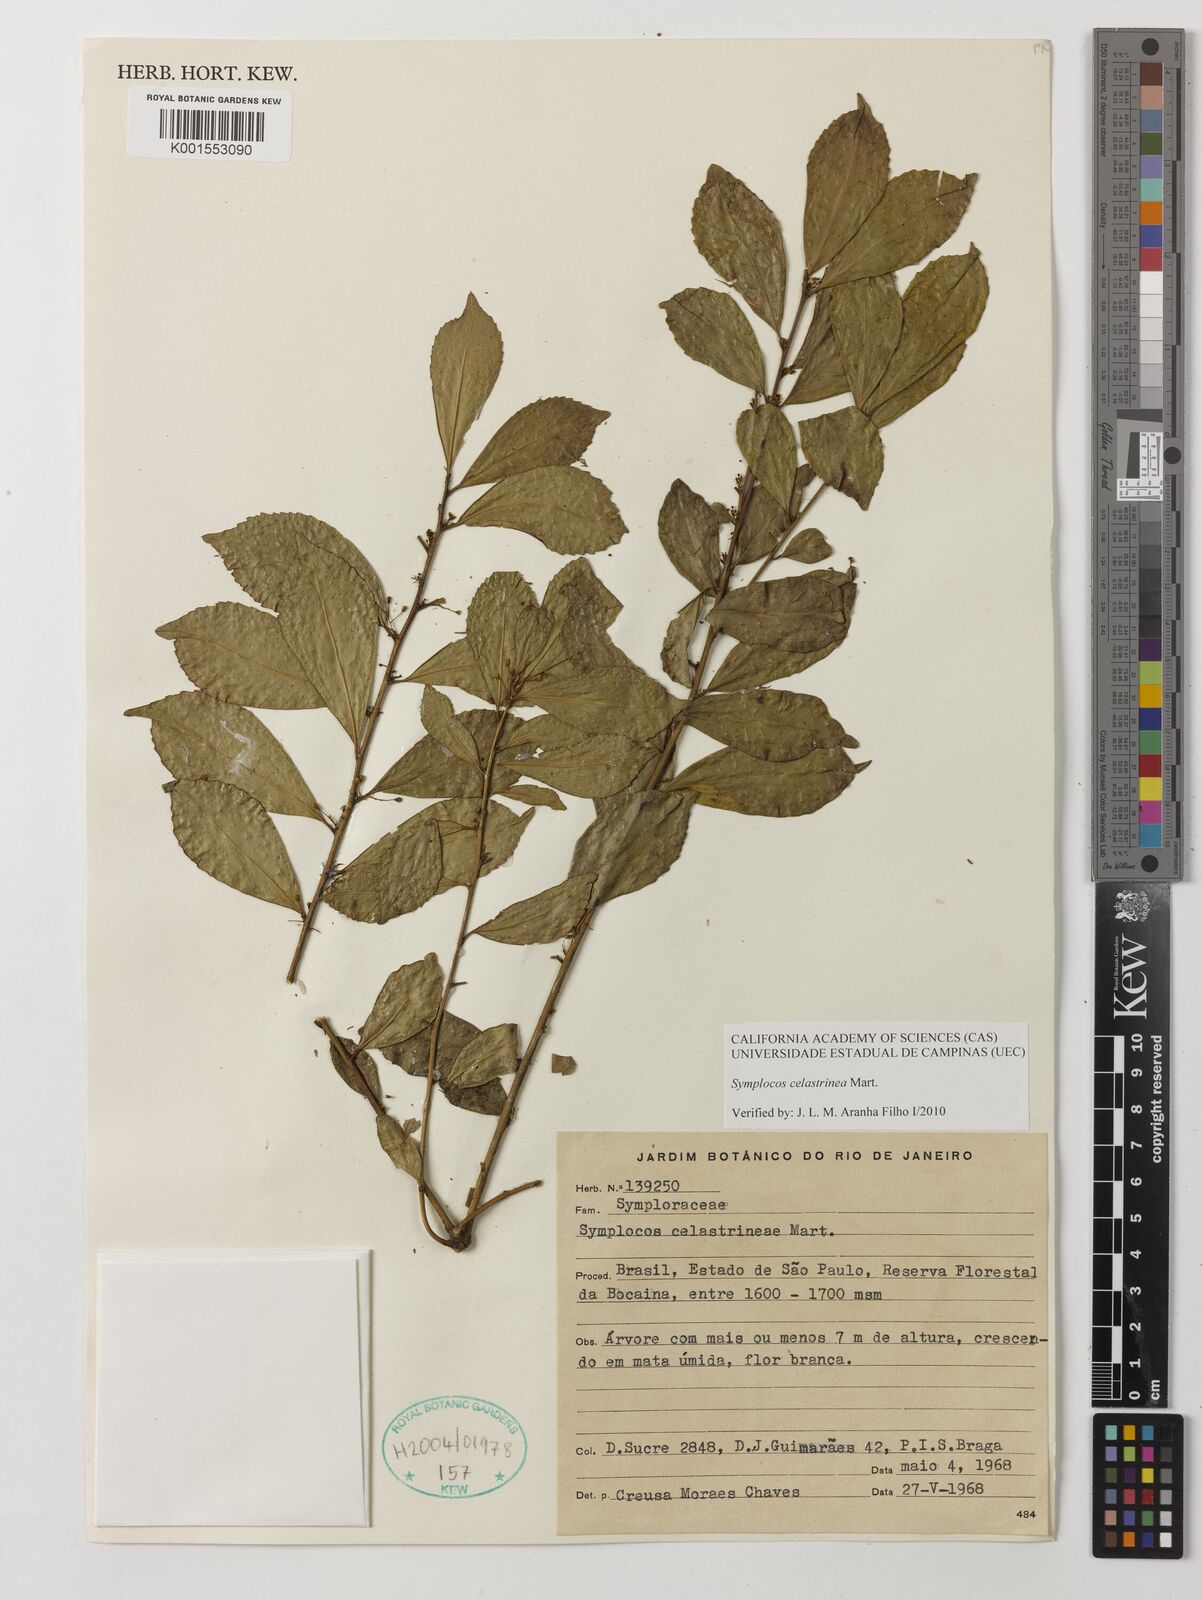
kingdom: Plantae
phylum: Tracheophyta
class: Magnoliopsida
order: Ericales
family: Symplocaceae
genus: Symplocos
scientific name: Symplocos celastrinea
